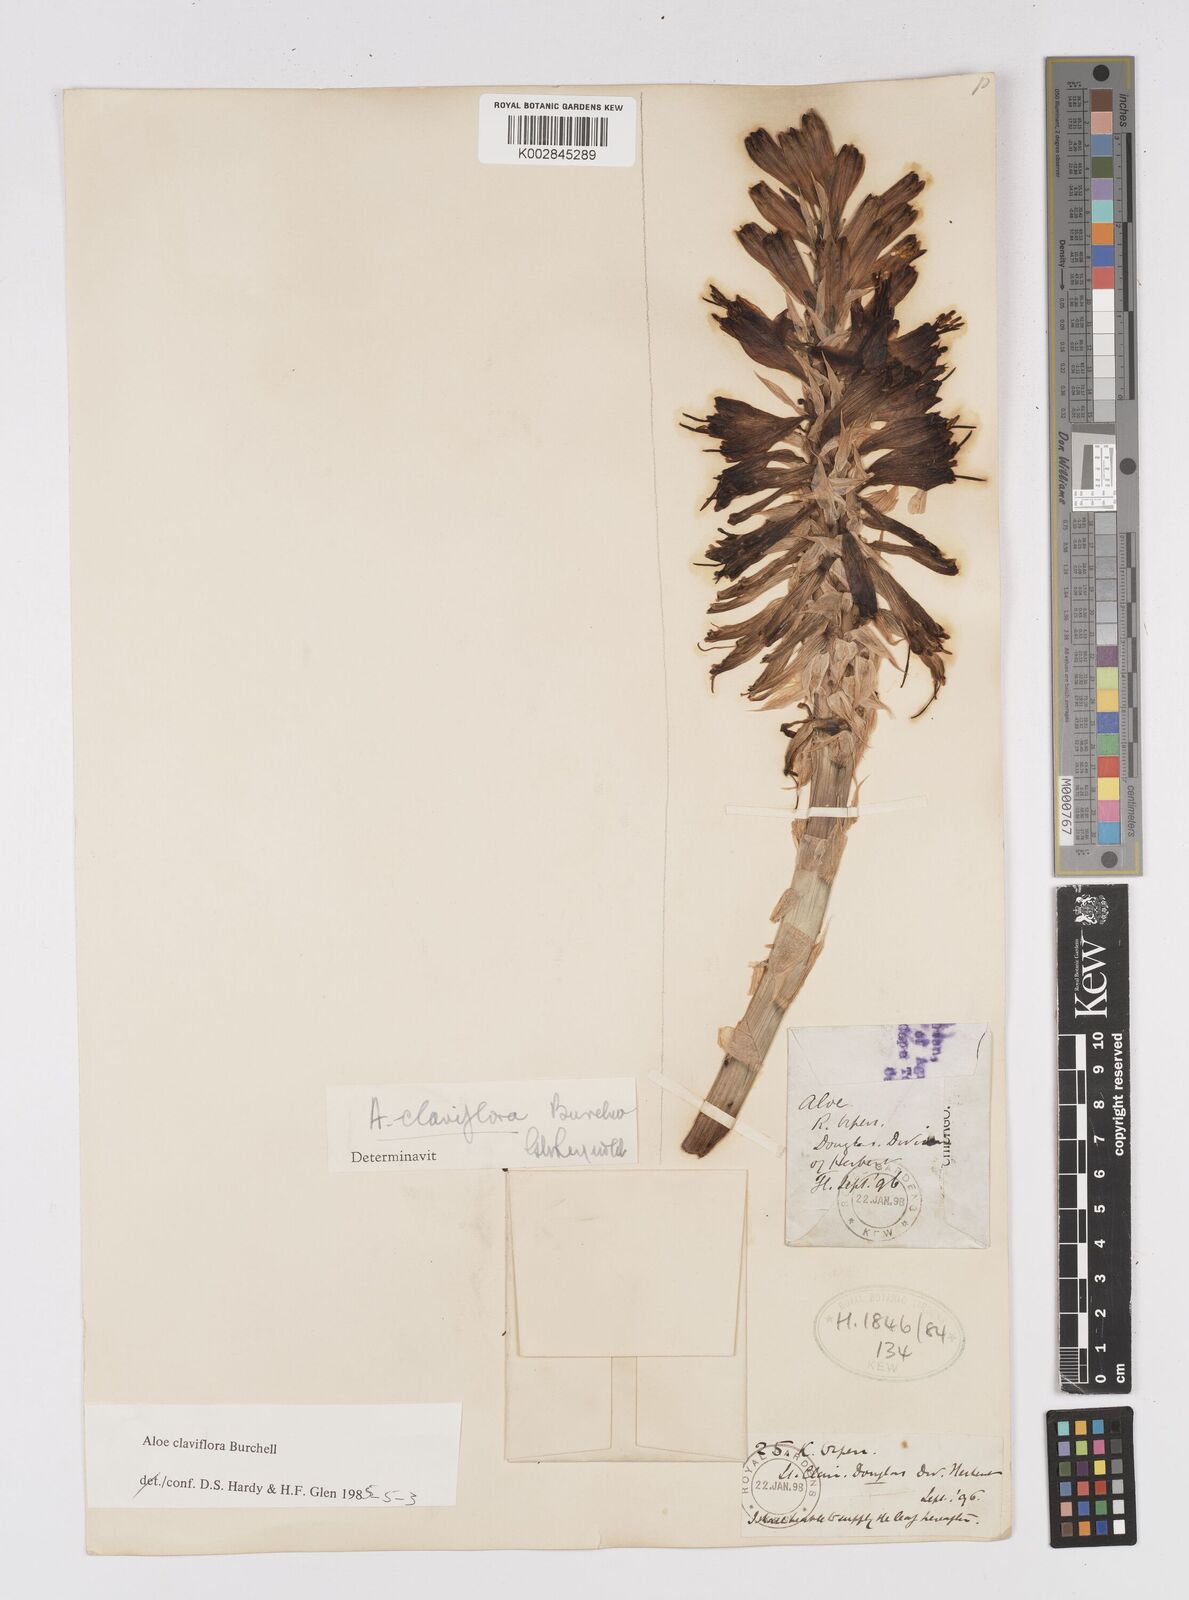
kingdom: Plantae
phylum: Tracheophyta
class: Liliopsida
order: Asparagales
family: Asphodelaceae
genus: Aloe
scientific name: Aloe claviflora
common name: Cannon aloe
